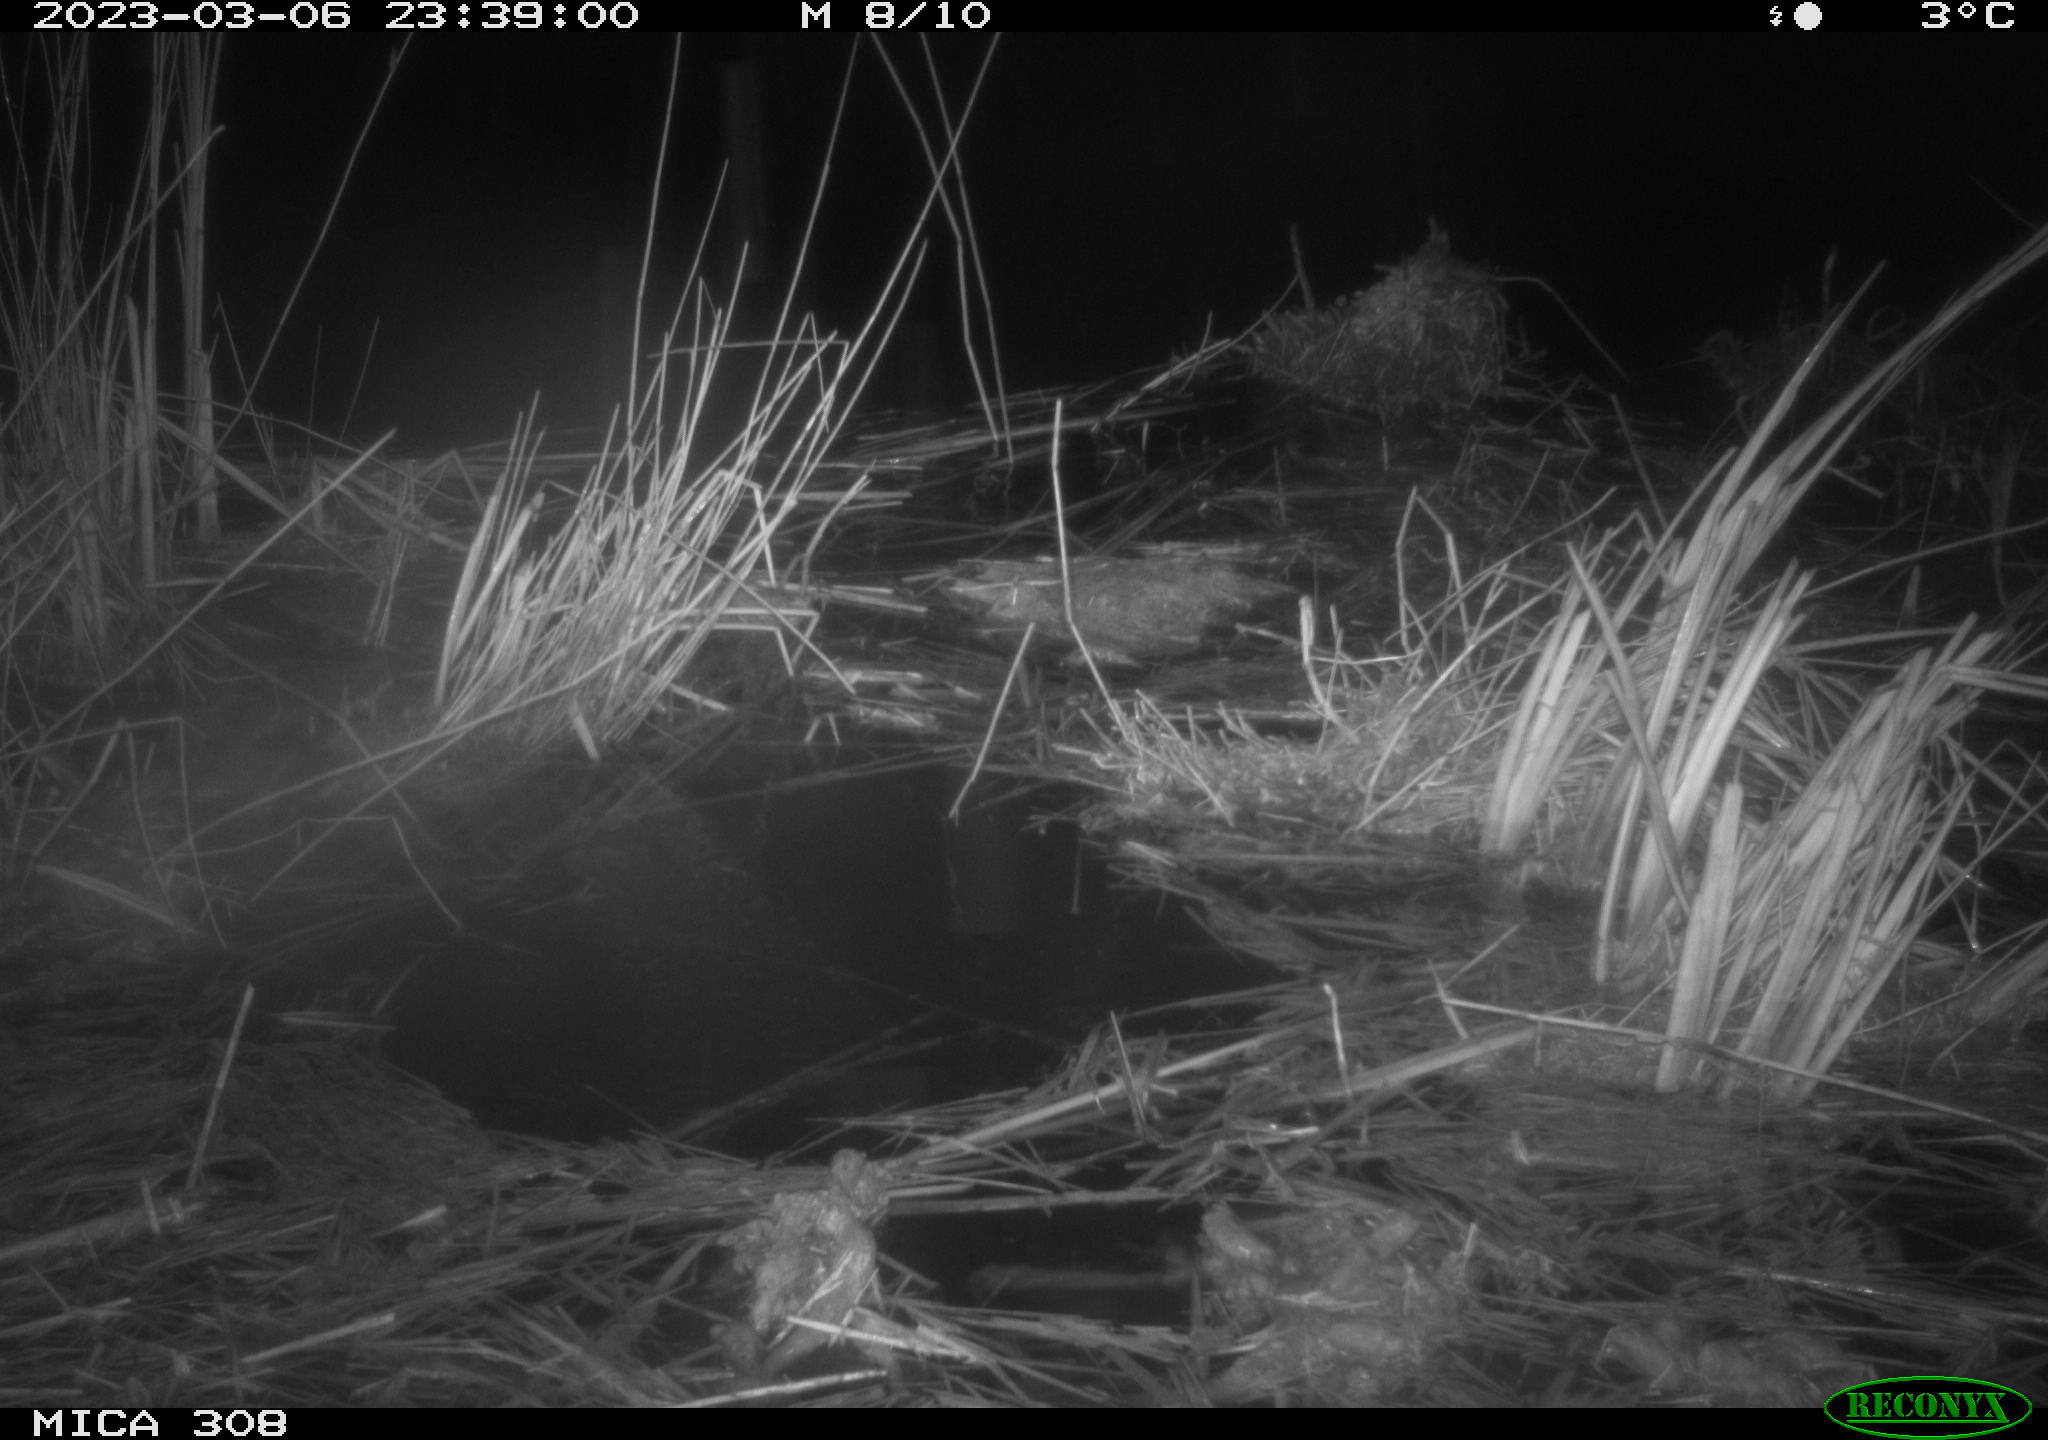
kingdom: Animalia
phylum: Chordata
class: Mammalia
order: Rodentia
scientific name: Rodentia
